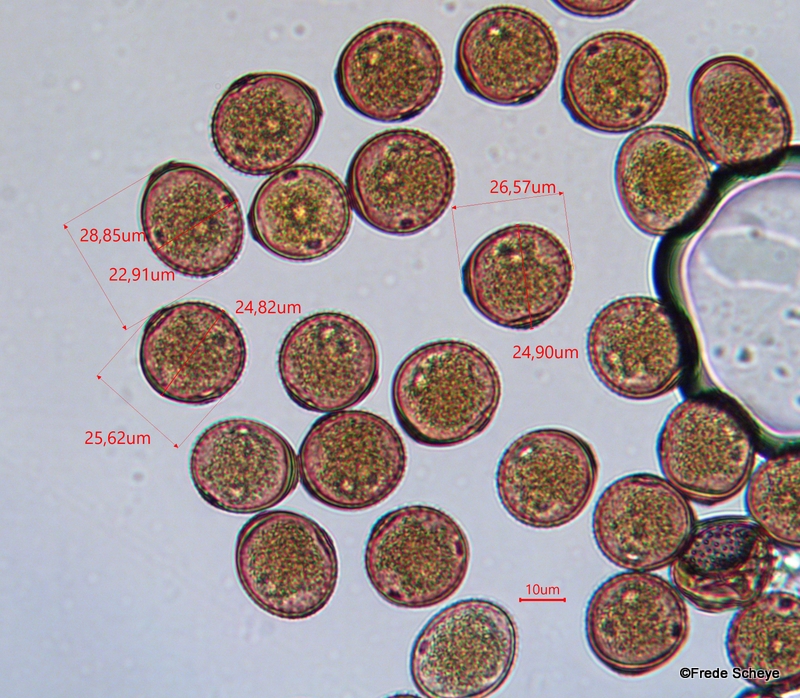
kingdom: Fungi
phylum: Basidiomycota
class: Pucciniomycetes
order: Pucciniales
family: Pucciniaceae
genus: Puccinia
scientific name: Puccinia suaveolens
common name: tidsel-tvecellerust
